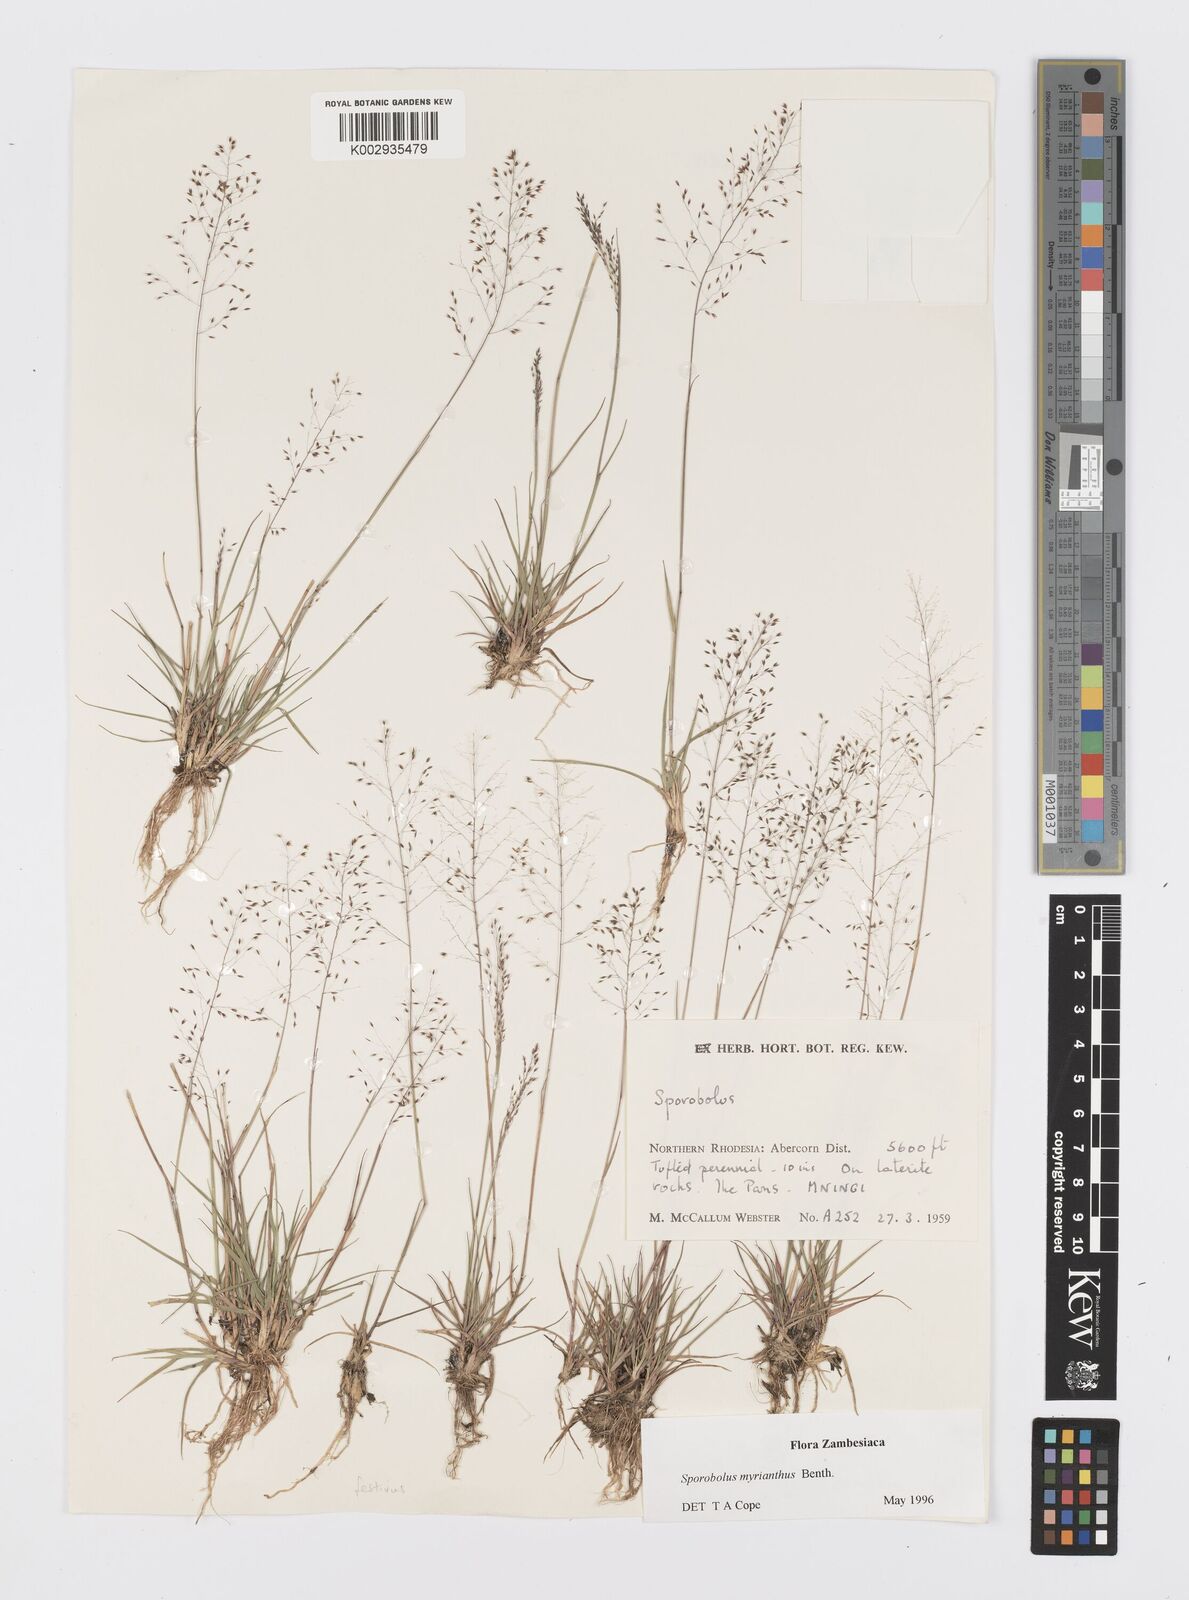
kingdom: Plantae
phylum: Tracheophyta
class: Liliopsida
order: Poales
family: Poaceae
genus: Sporobolus
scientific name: Sporobolus myrianthus
